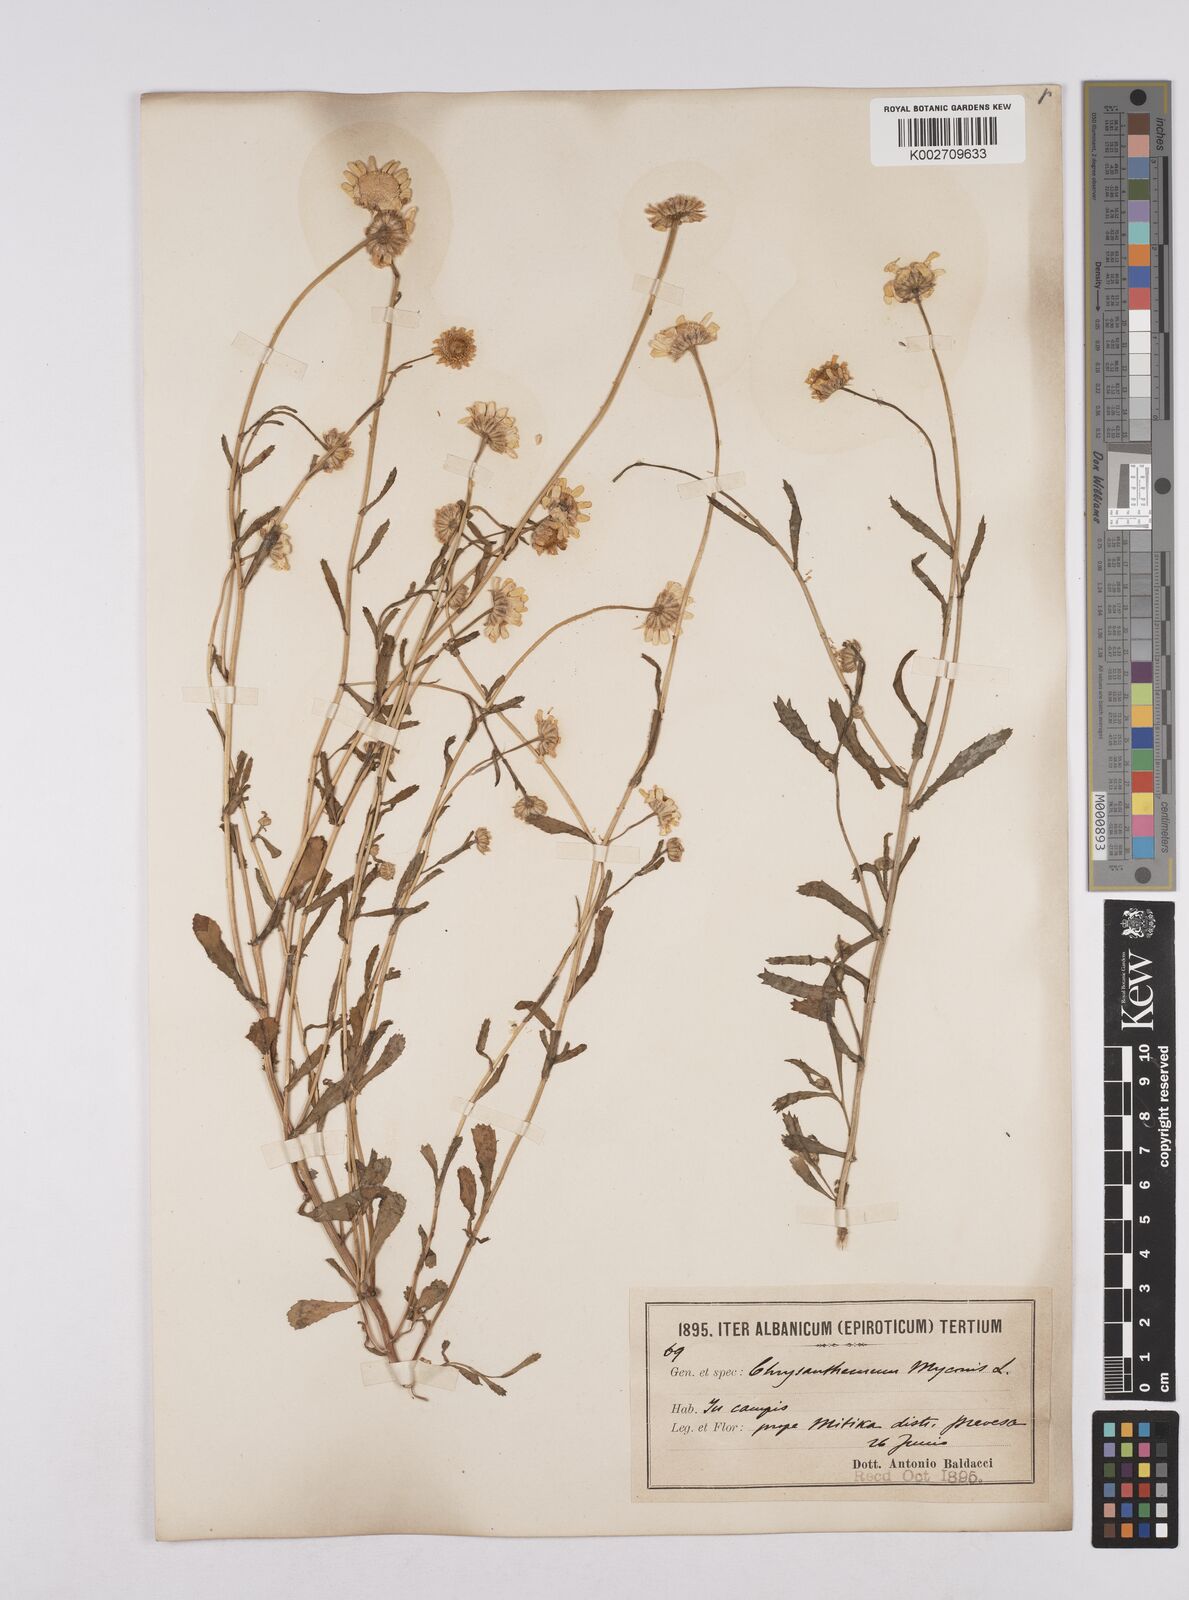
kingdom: Plantae
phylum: Tracheophyta
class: Magnoliopsida
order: Asterales
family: Asteraceae
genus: Coleostephus
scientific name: Coleostephus myconis
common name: Mediterranean marigold
